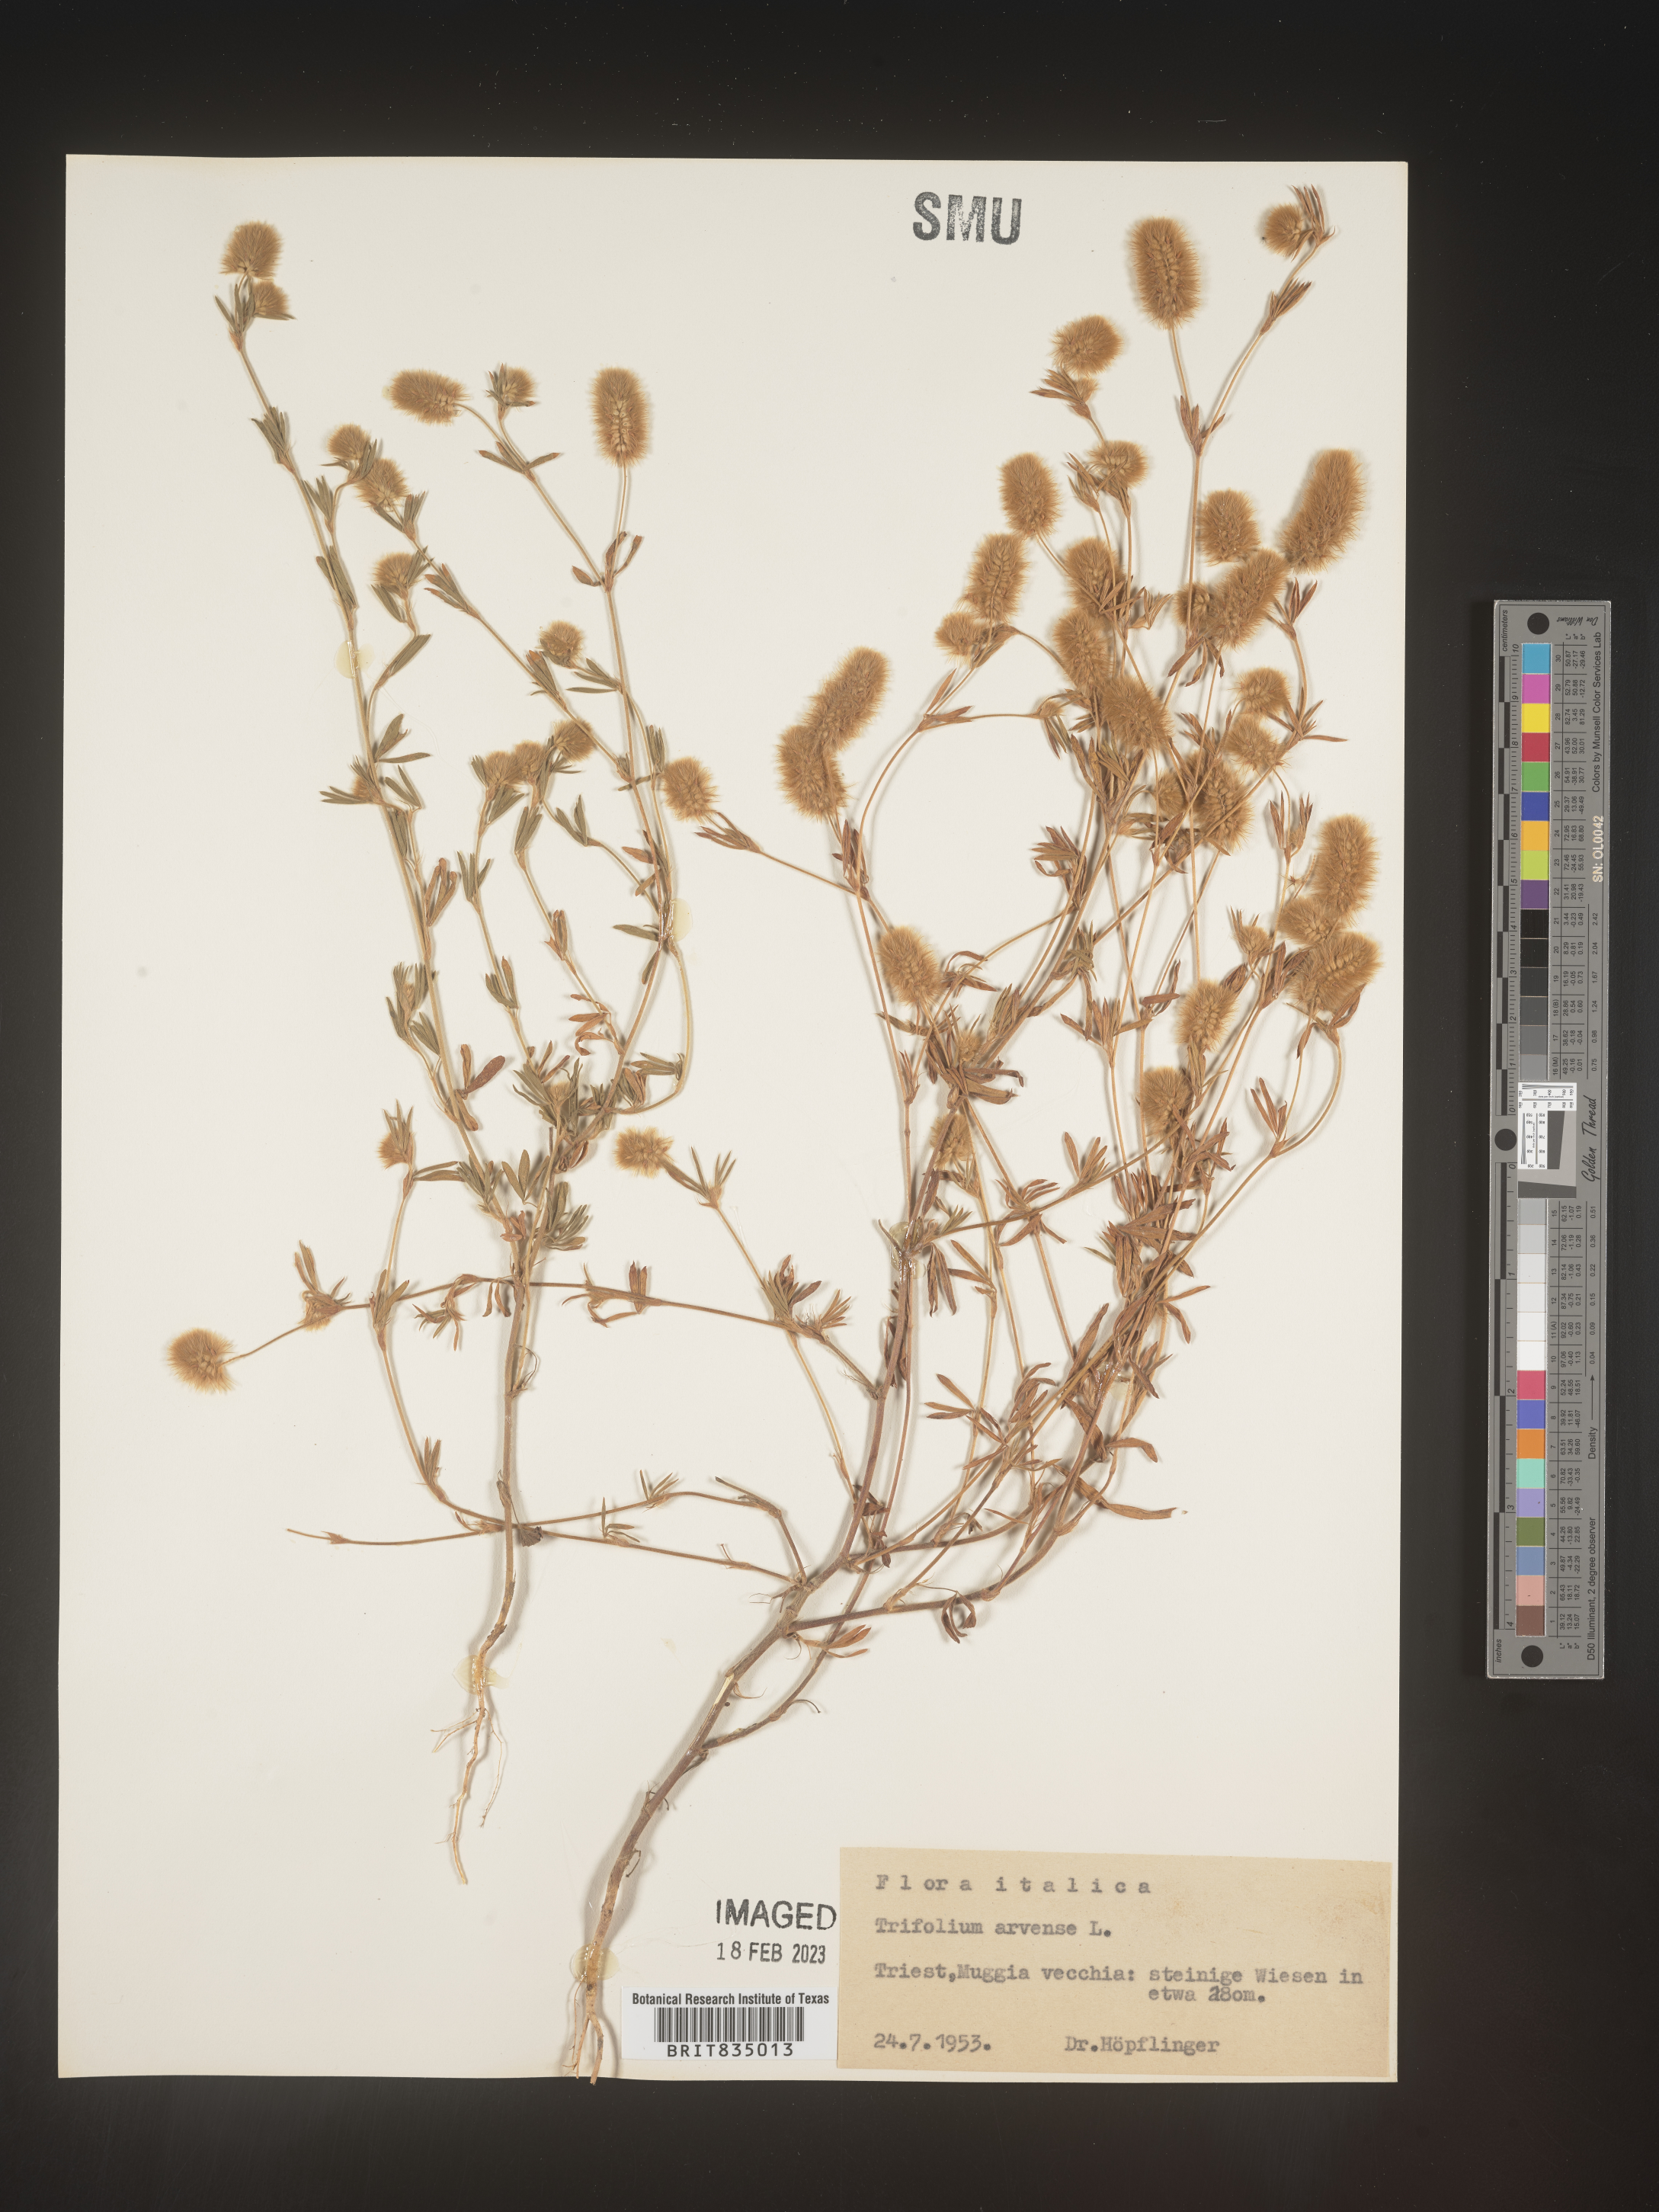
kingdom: Plantae
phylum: Tracheophyta
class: Magnoliopsida
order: Fabales
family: Fabaceae
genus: Trifolium
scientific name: Trifolium
